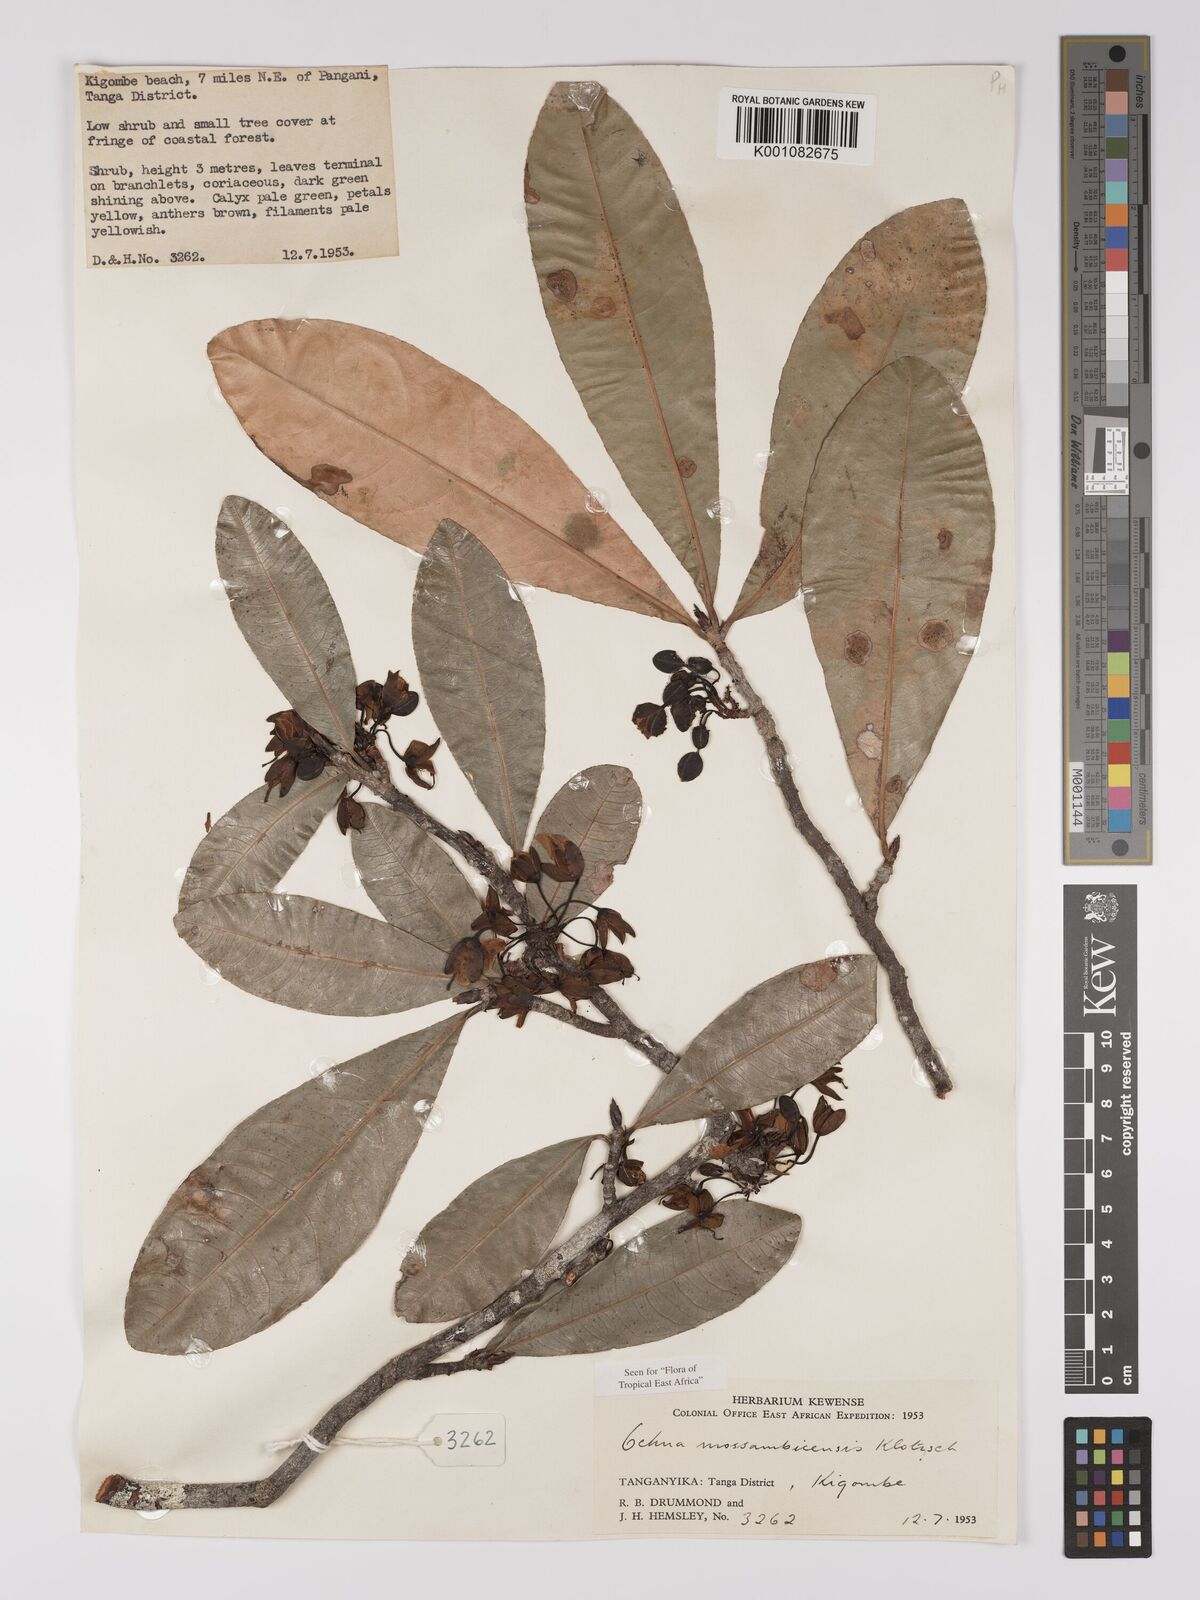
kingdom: Plantae
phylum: Tracheophyta
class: Magnoliopsida
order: Malpighiales
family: Ochnaceae
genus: Ochna
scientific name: Ochna atropurpurea
